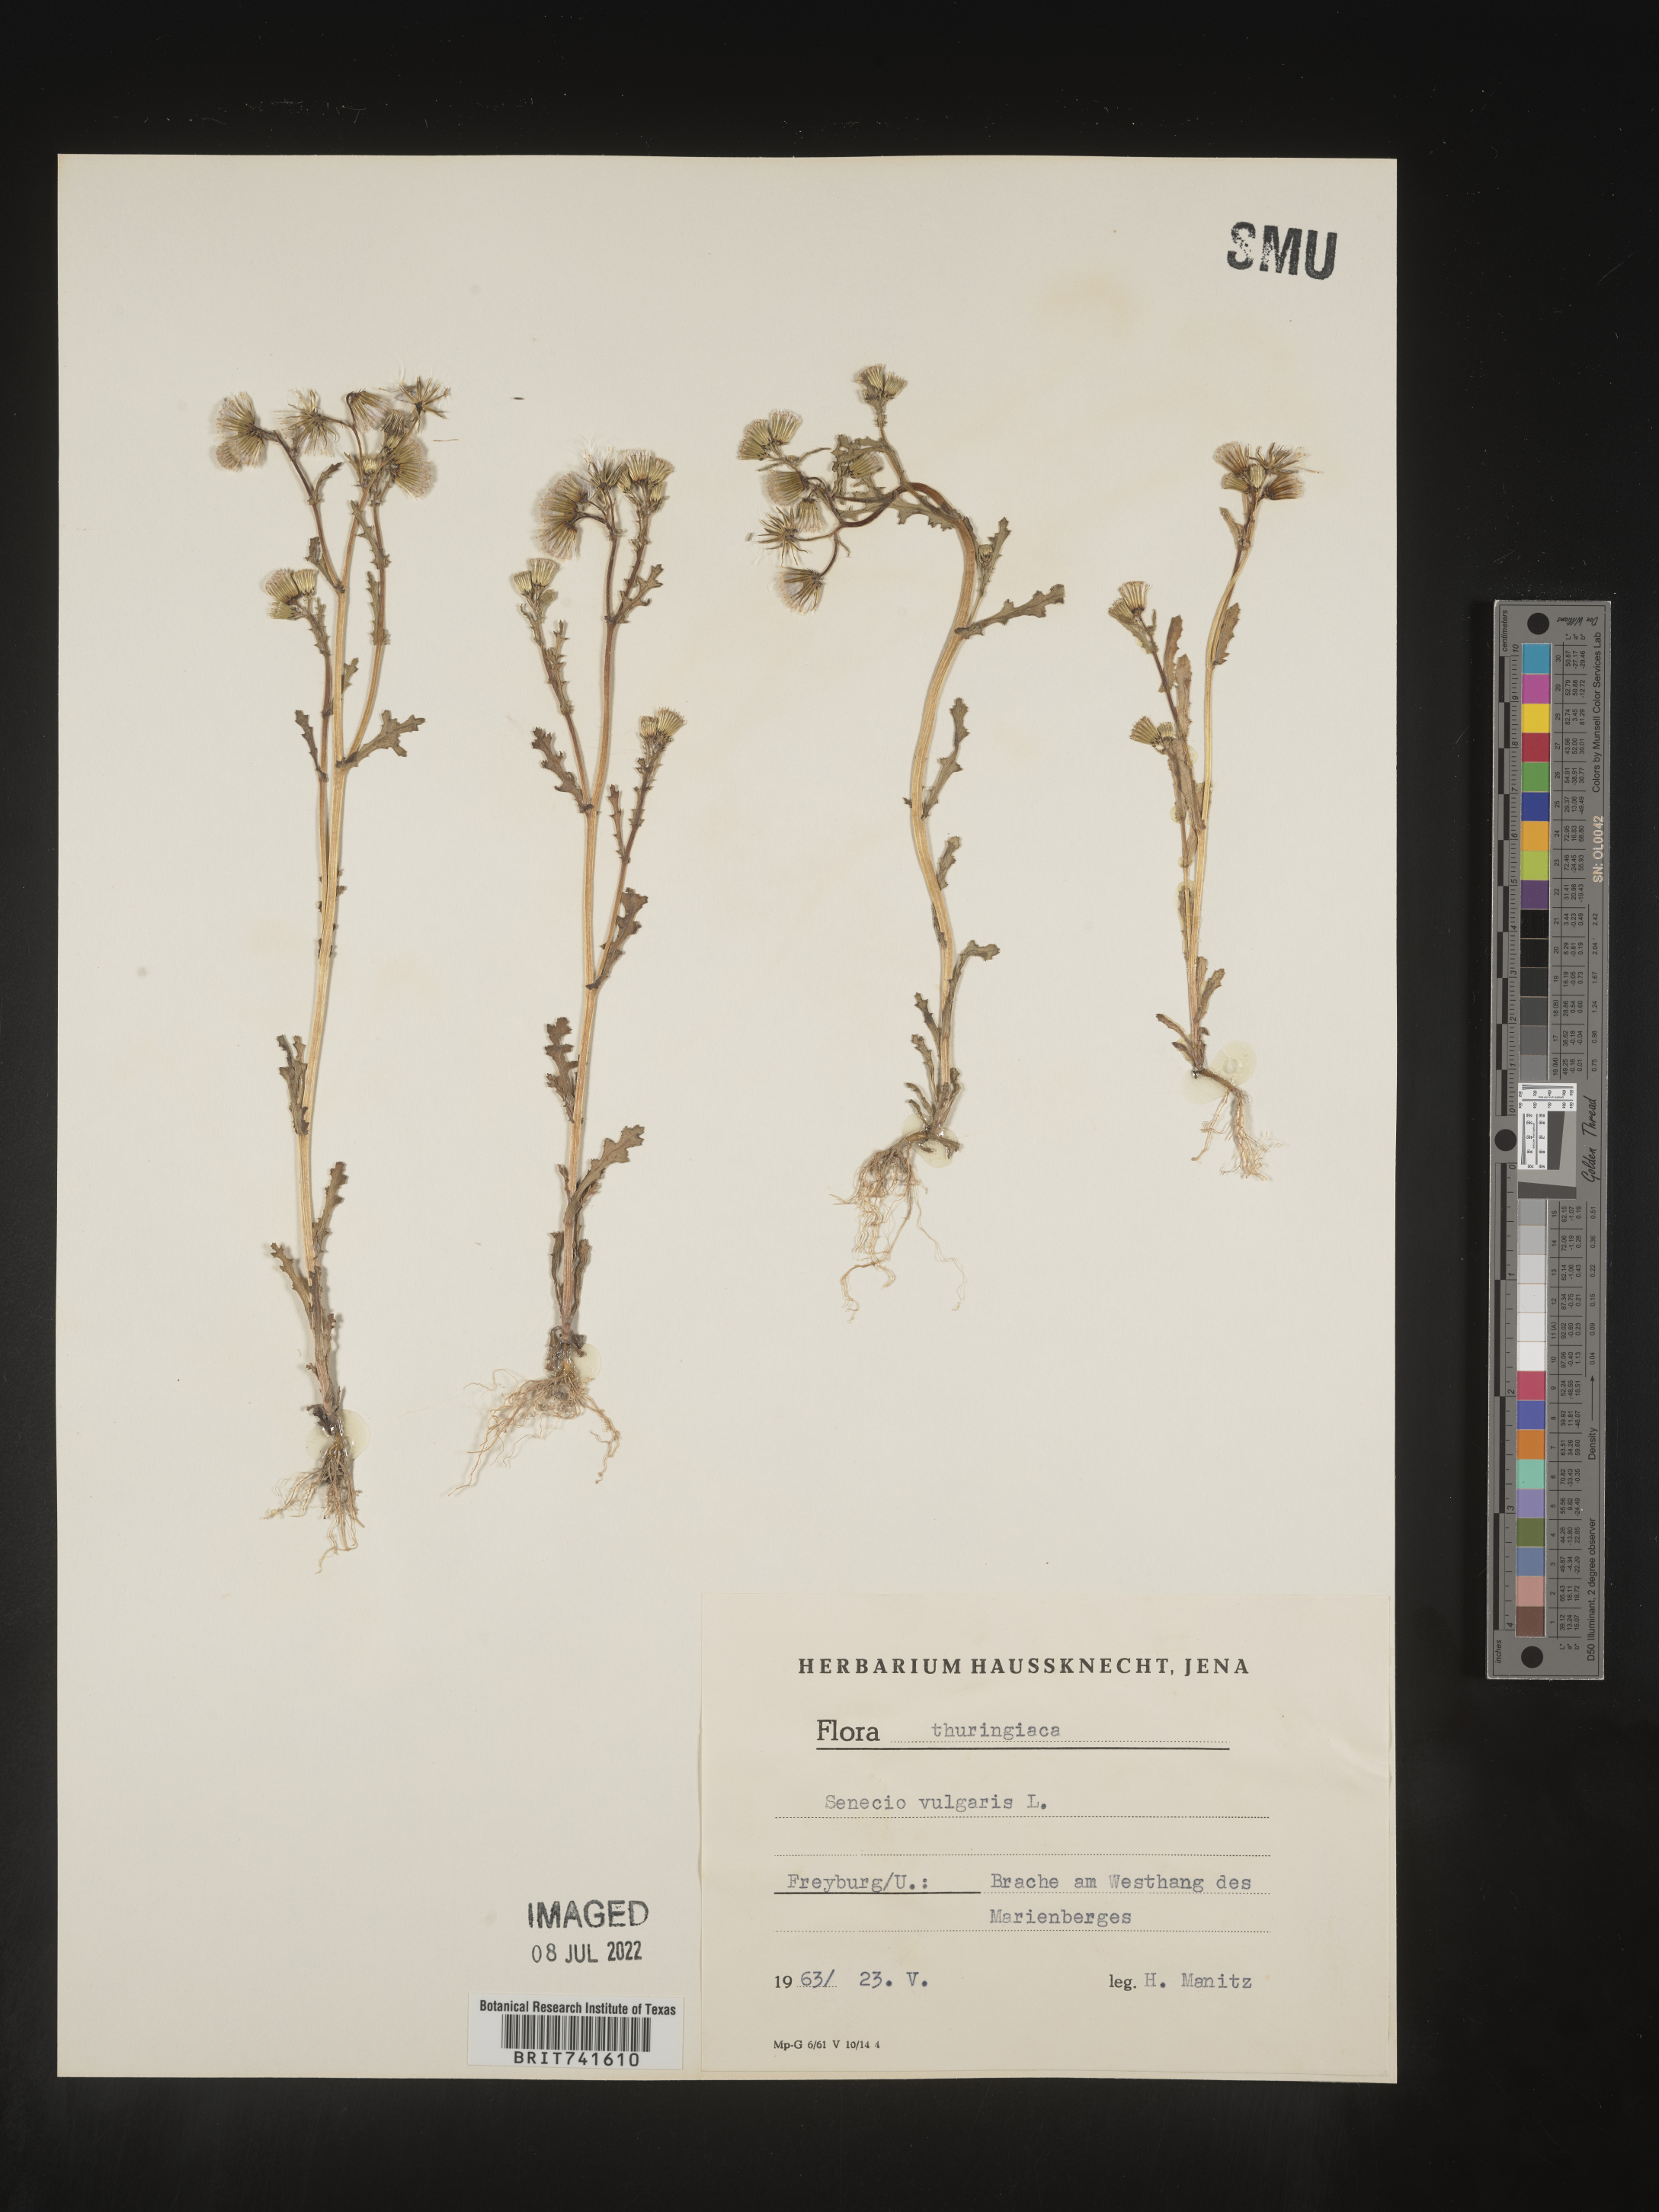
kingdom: Plantae
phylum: Tracheophyta
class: Magnoliopsida
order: Asterales
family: Asteraceae
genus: Senecio
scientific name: Senecio
